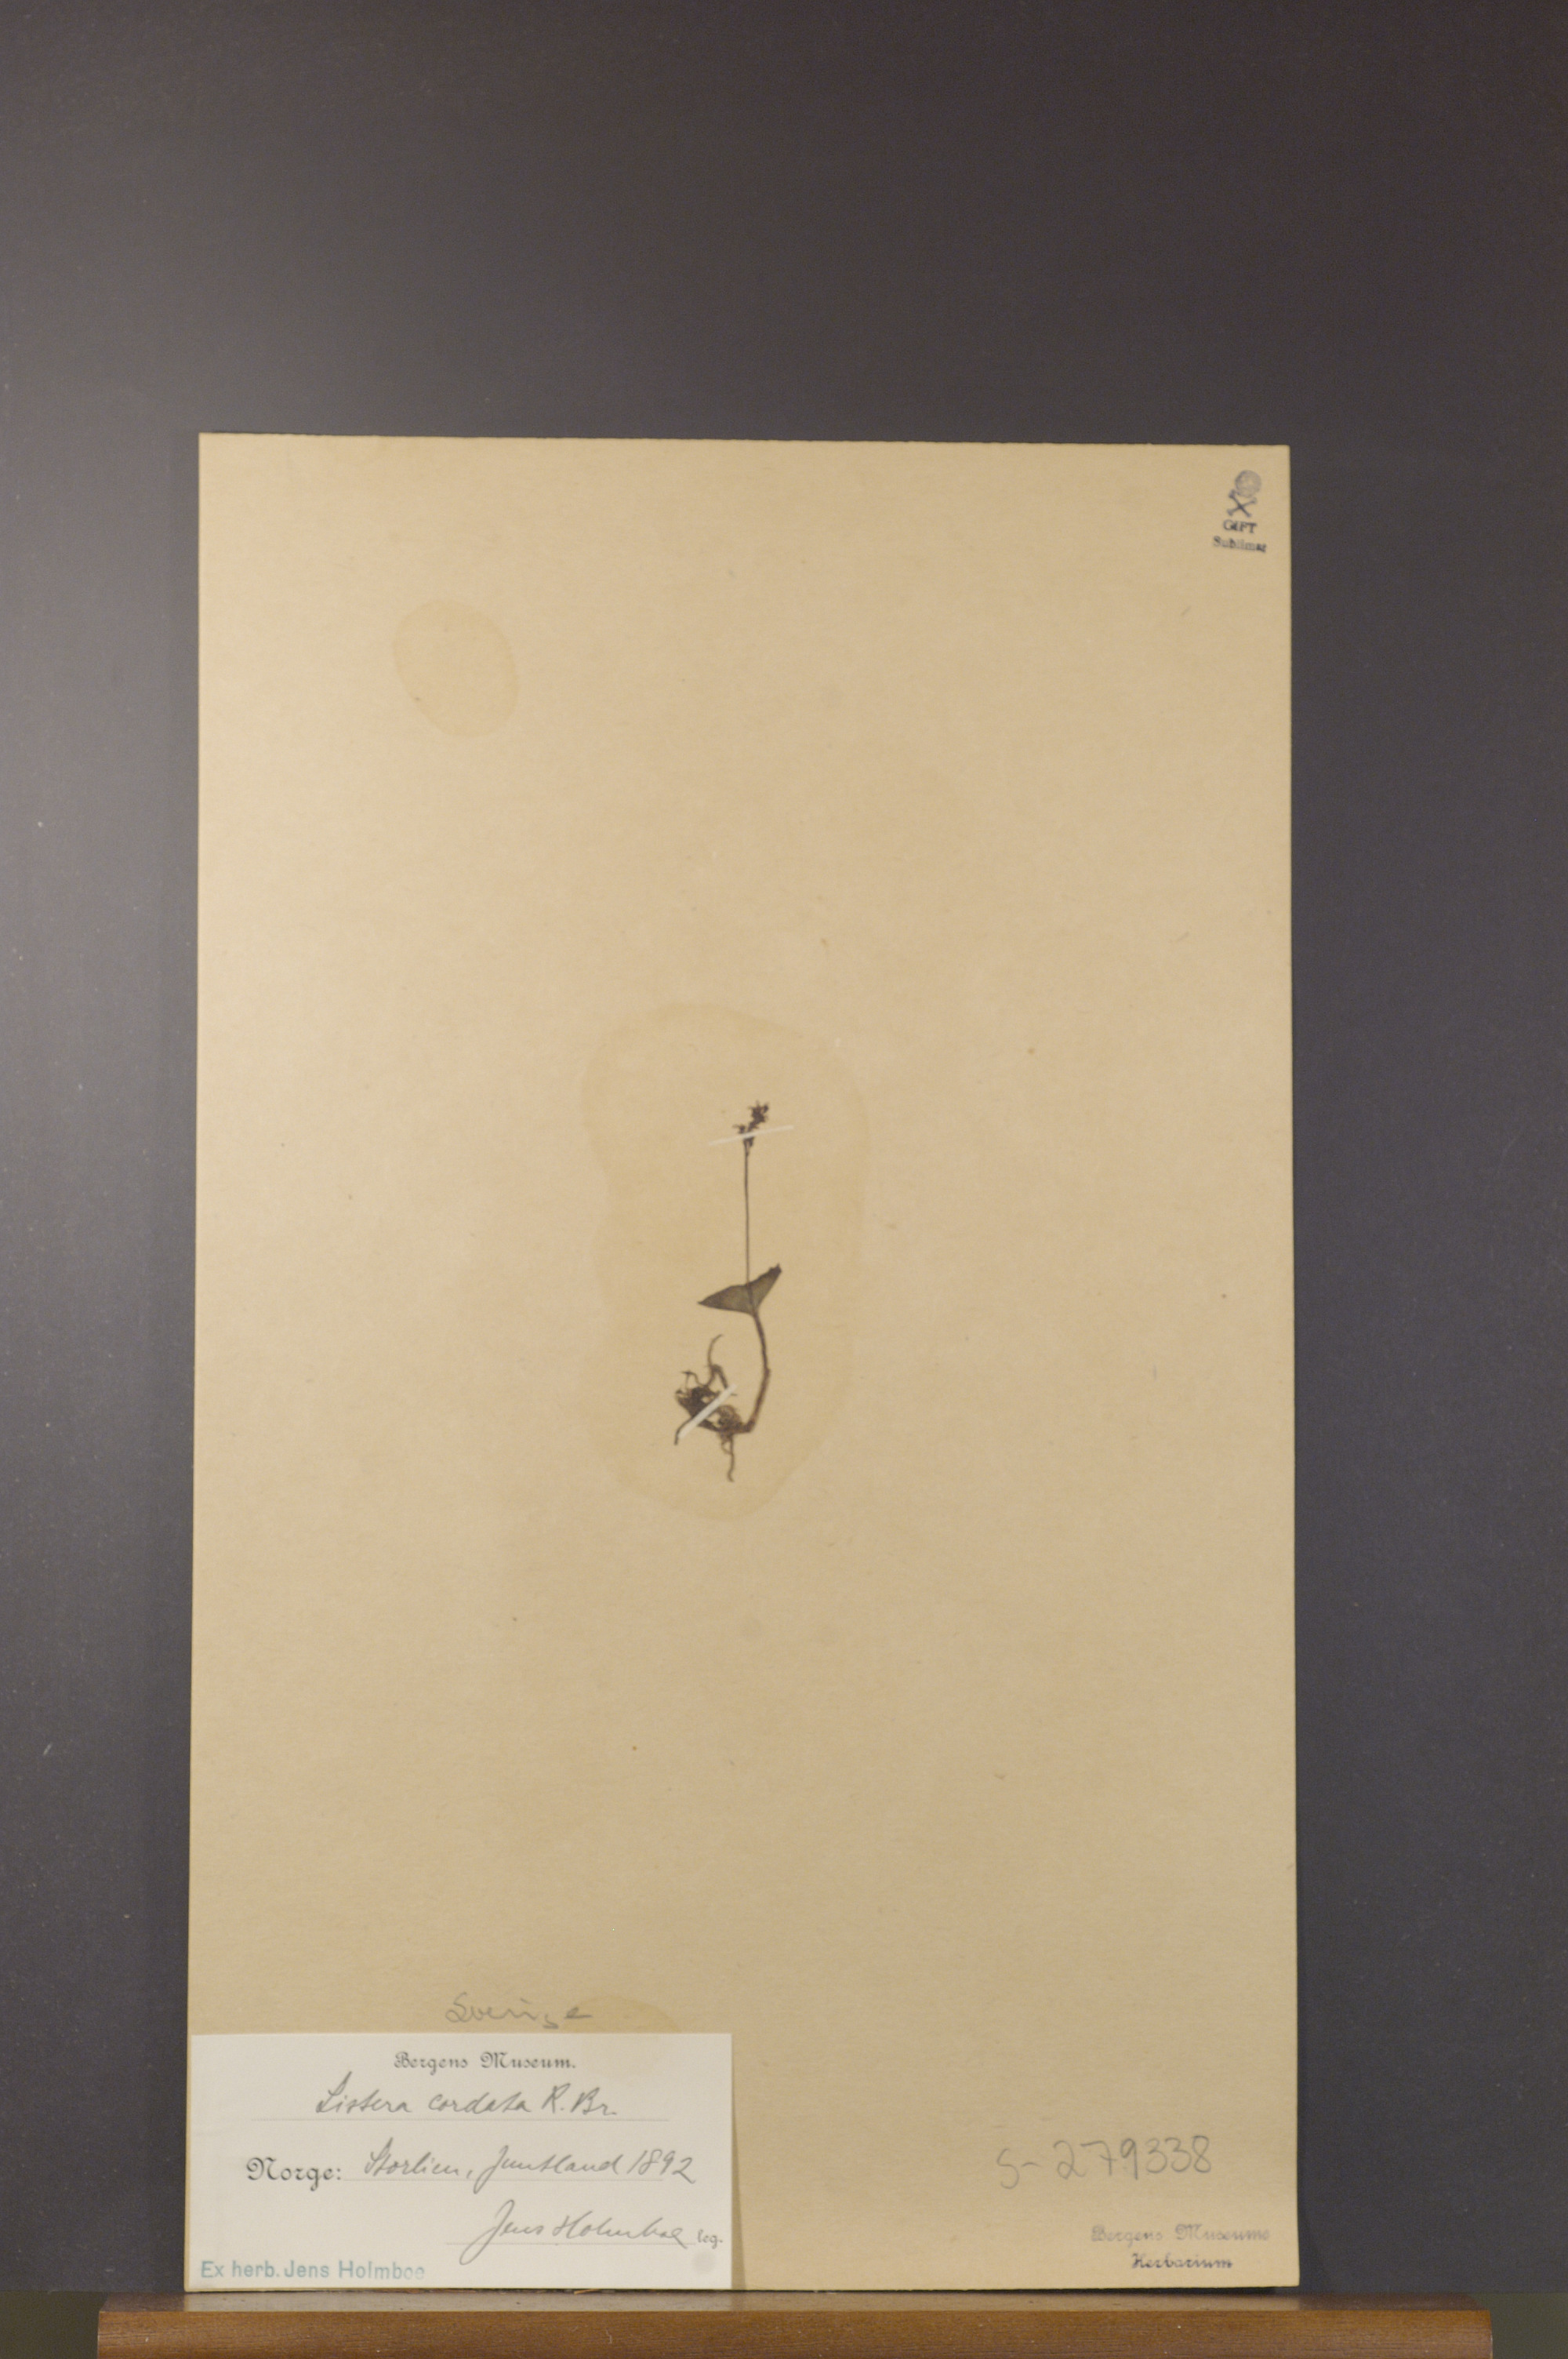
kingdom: Plantae
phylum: Tracheophyta
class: Liliopsida
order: Asparagales
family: Orchidaceae
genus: Neottia
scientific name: Neottia cordata
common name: Lesser twayblade
